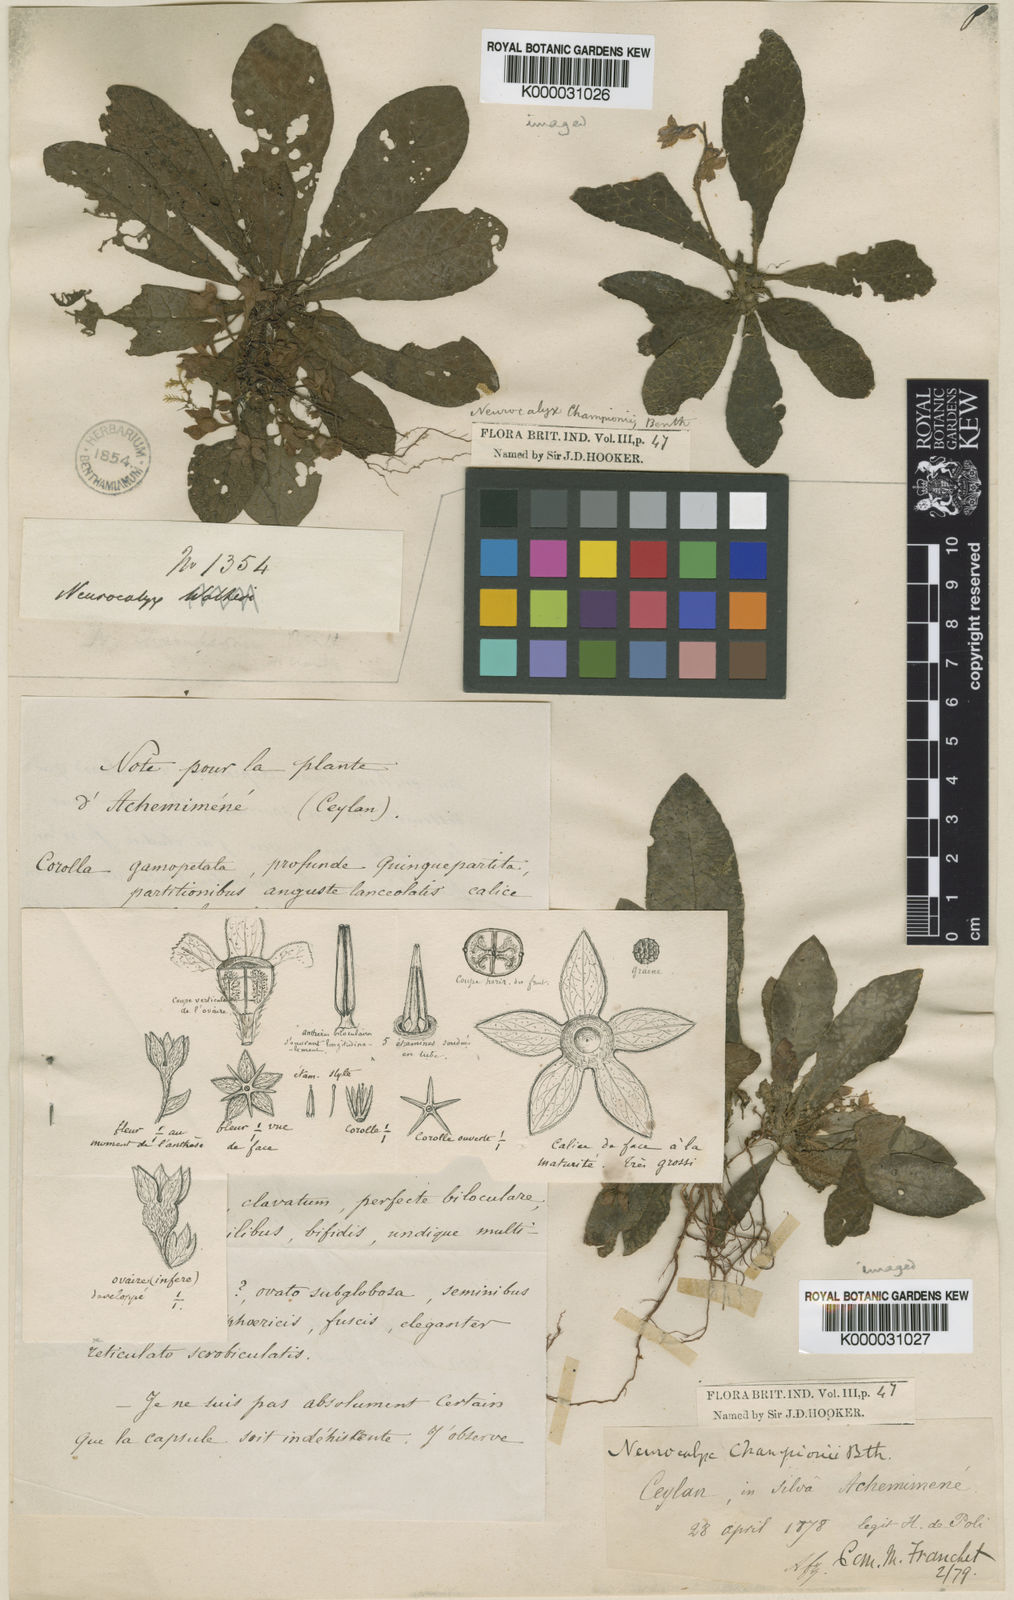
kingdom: Plantae
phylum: Tracheophyta
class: Magnoliopsida
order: Gentianales
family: Rubiaceae
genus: Neurocalyx
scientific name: Neurocalyx championii
